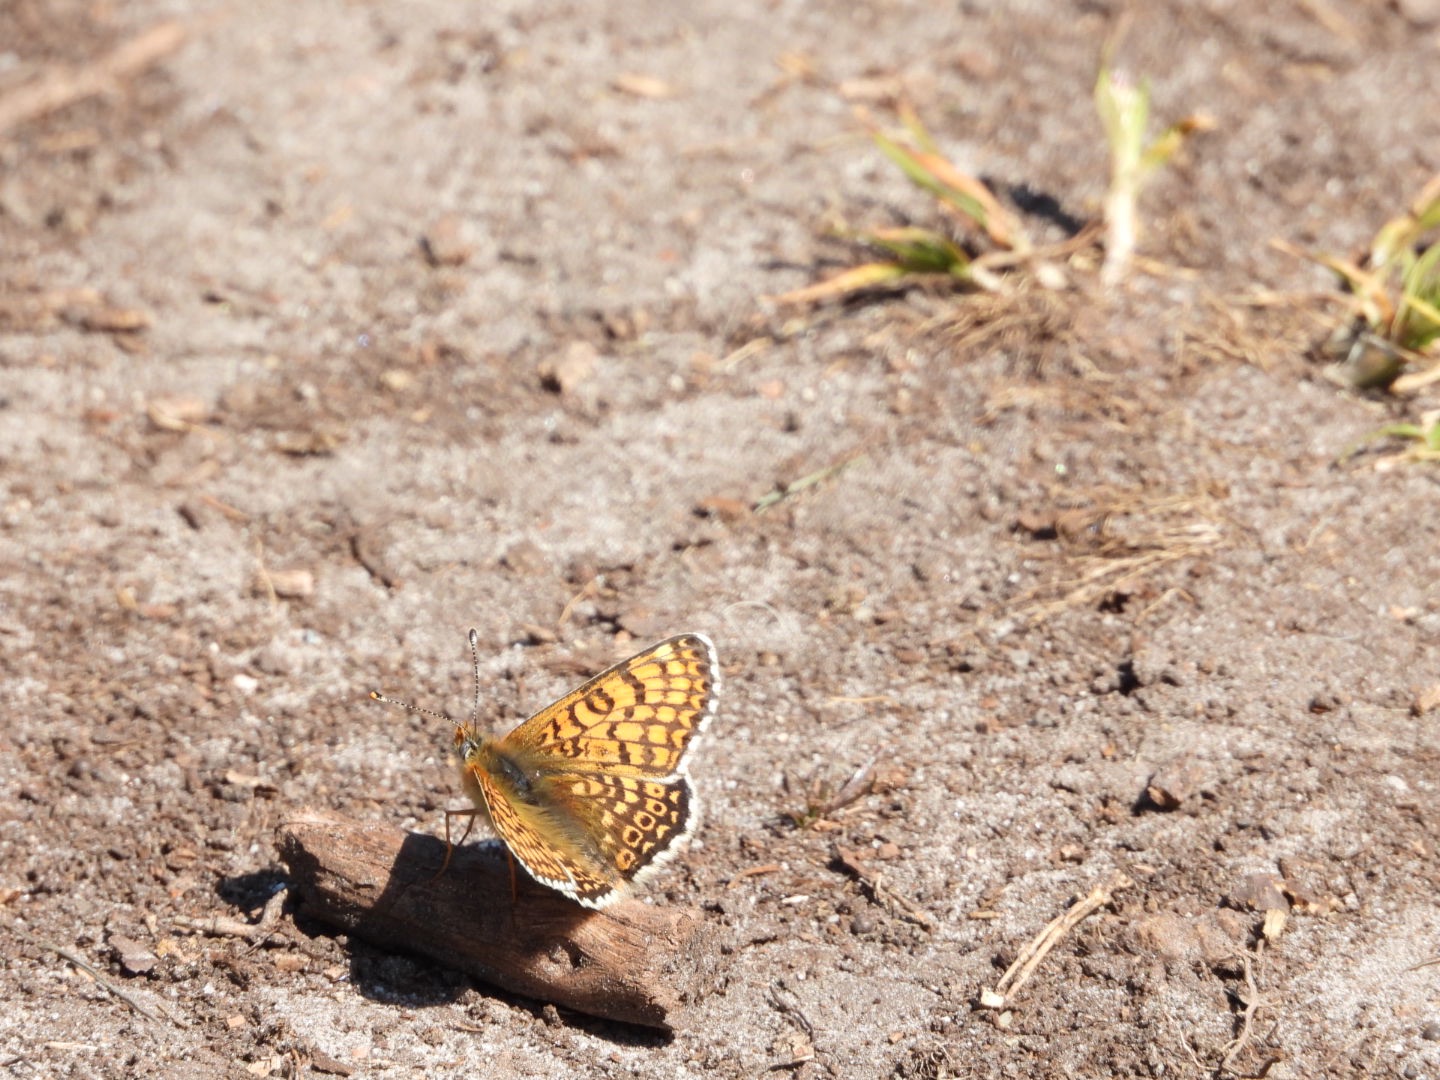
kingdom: Animalia
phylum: Arthropoda
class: Insecta
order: Lepidoptera
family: Nymphalidae
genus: Melitaea
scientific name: Melitaea cinxia
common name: Okkergul pletvinge
